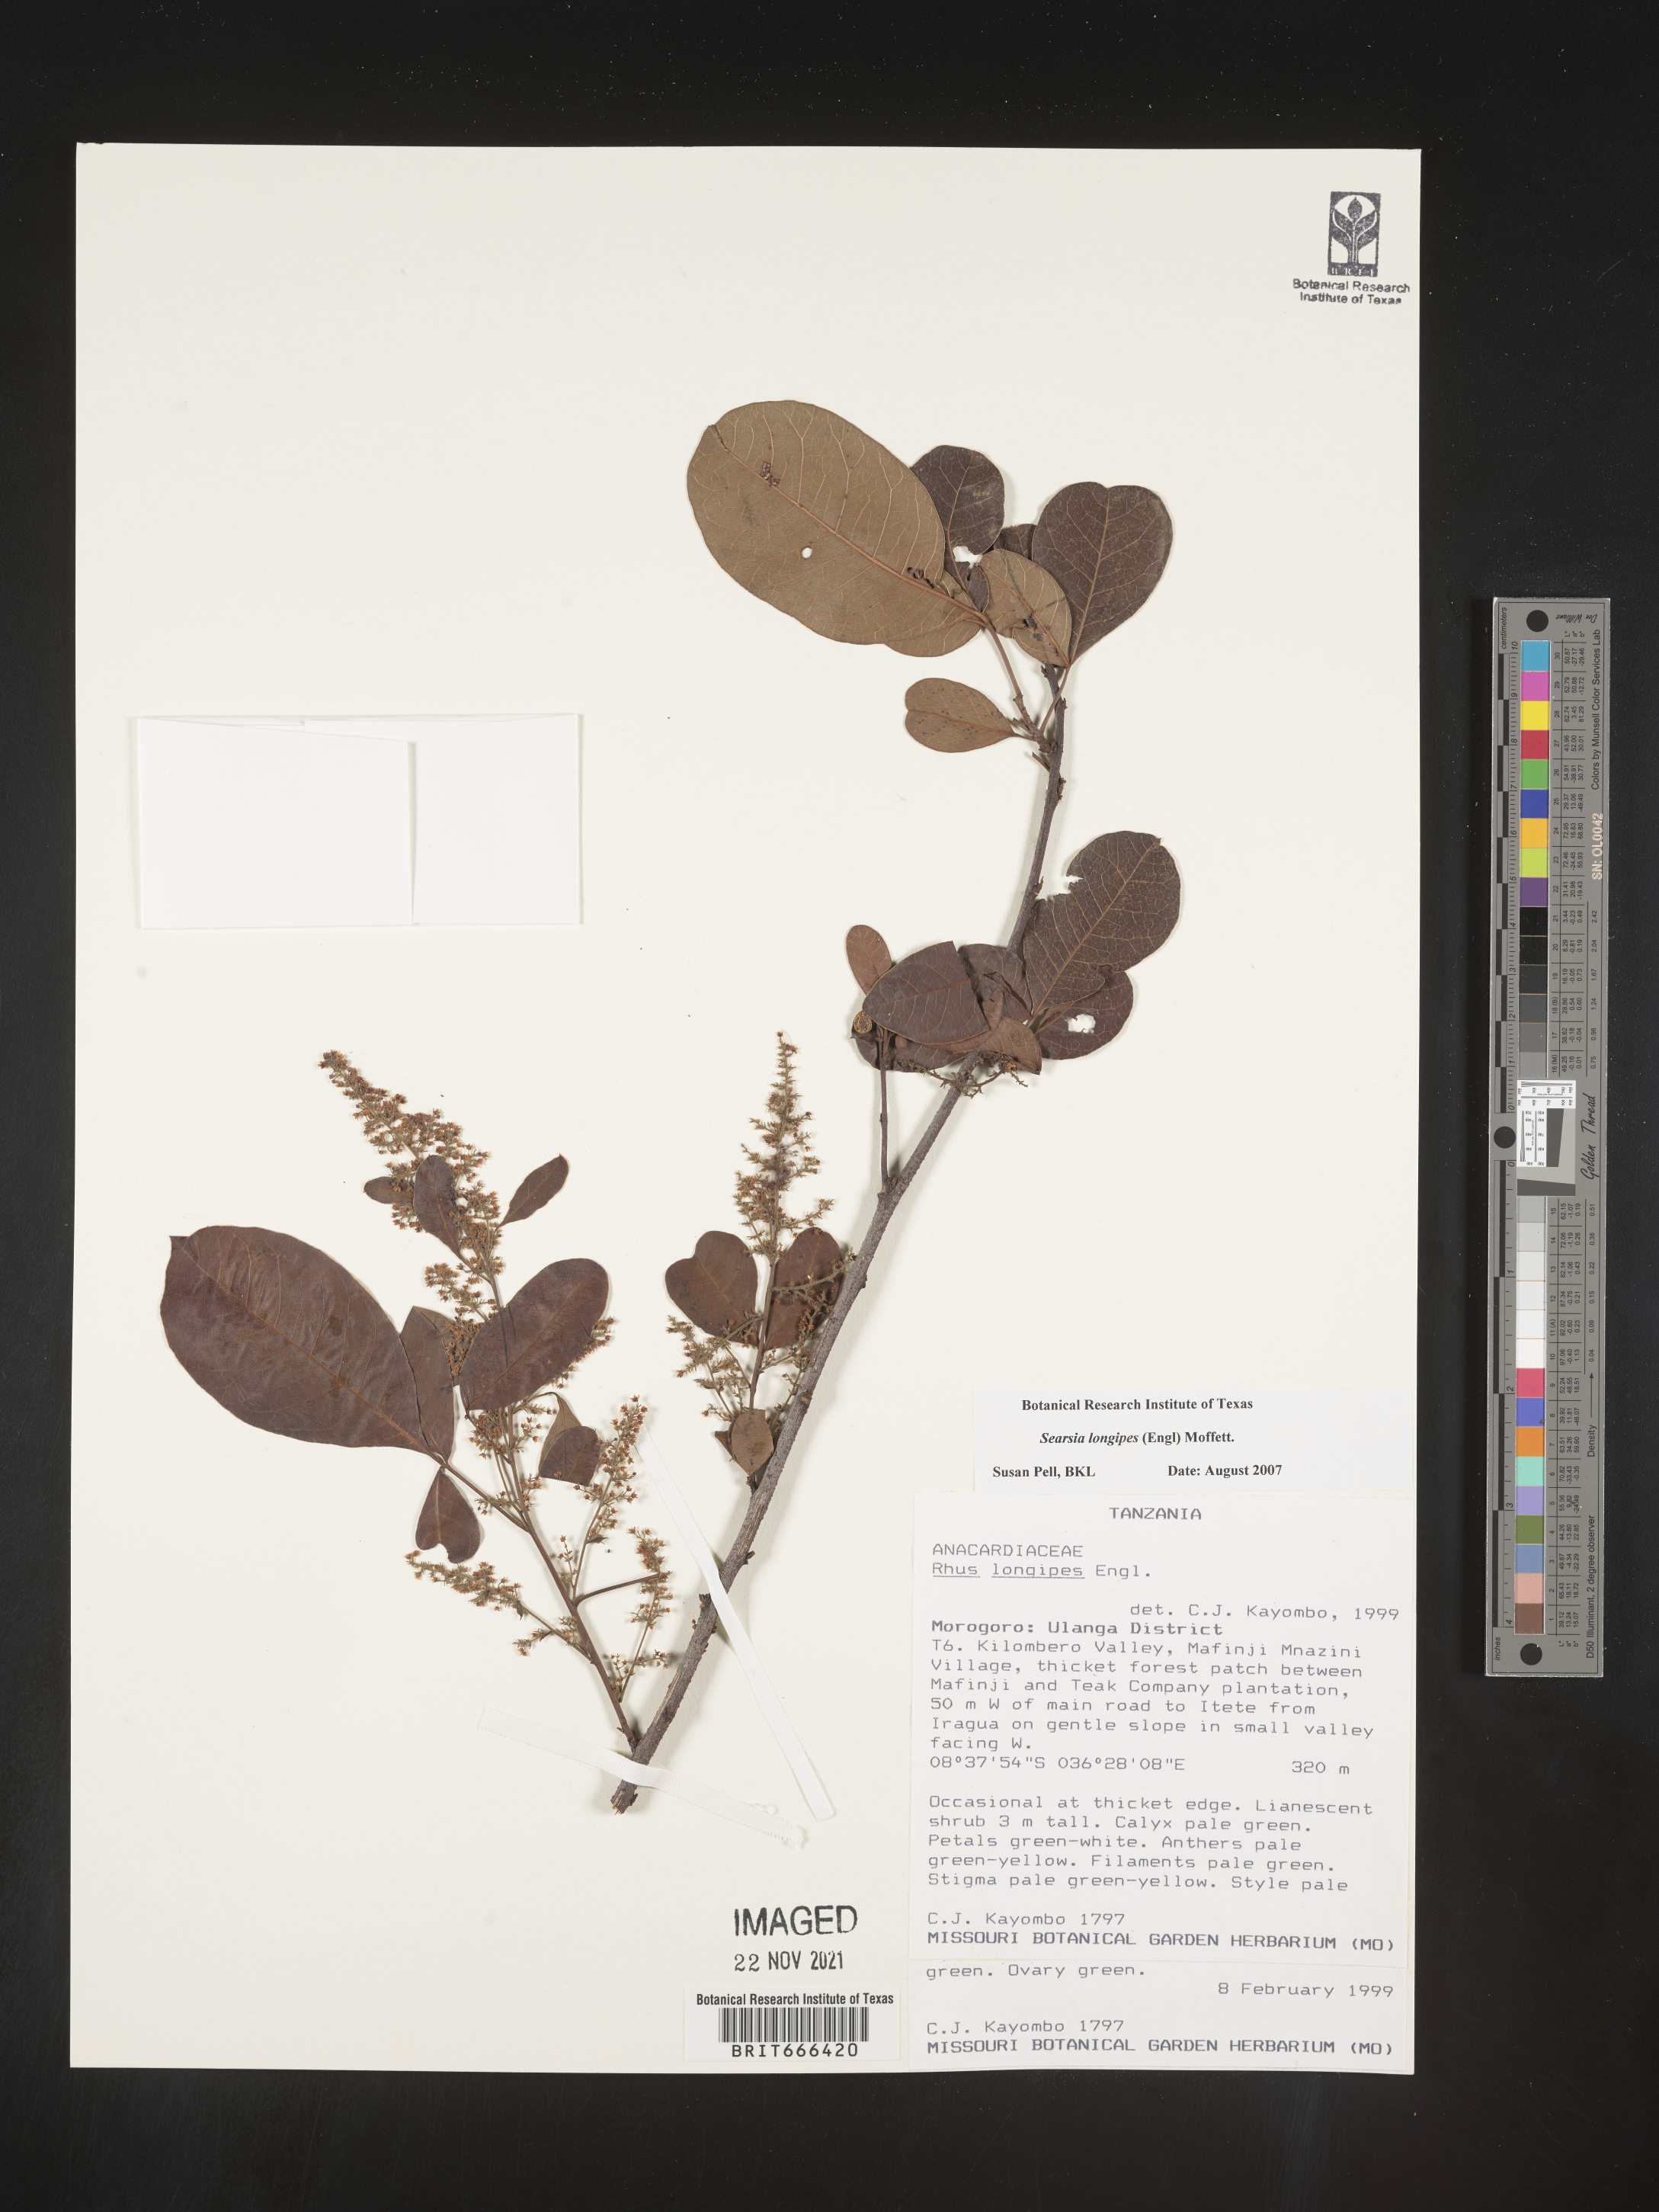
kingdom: Plantae
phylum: Tracheophyta
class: Magnoliopsida
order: Sapindales
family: Anacardiaceae
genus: Searsia
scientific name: Searsia longipes
